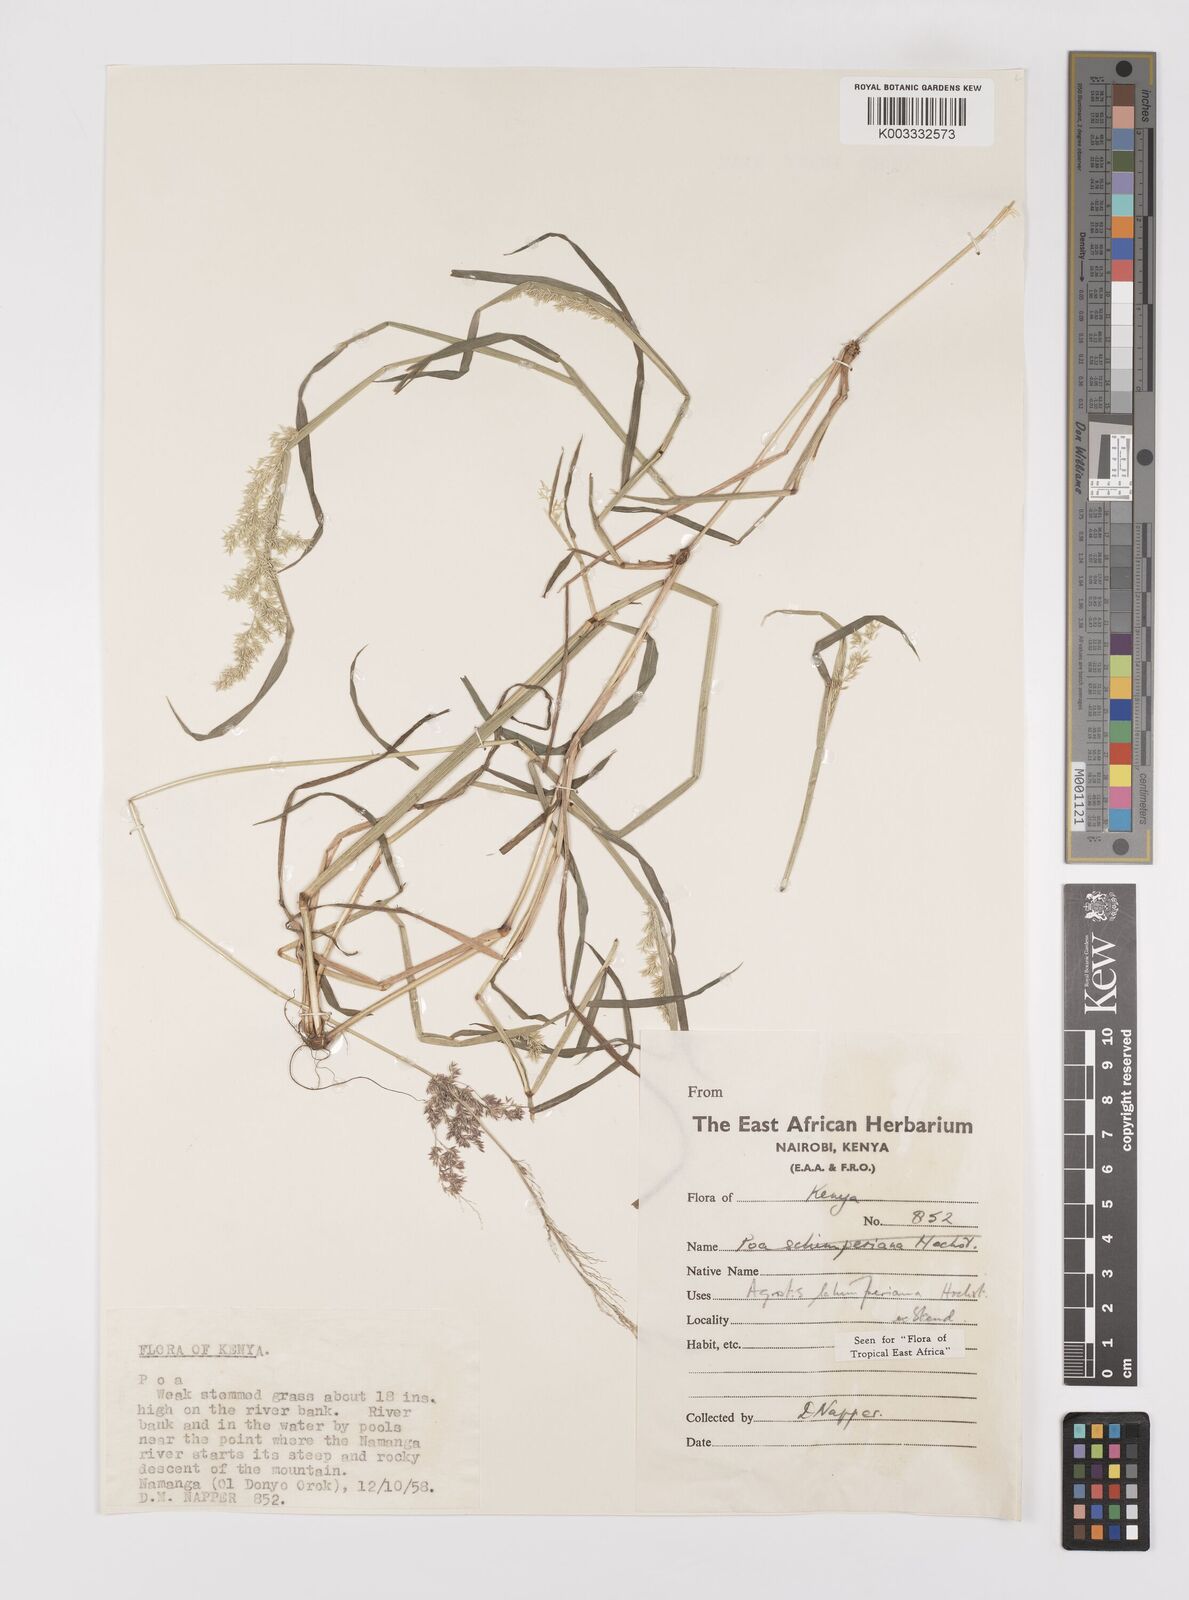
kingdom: Plantae
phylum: Tracheophyta
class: Liliopsida
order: Poales
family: Poaceae
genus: Polypogon
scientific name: Polypogon schimperianus
